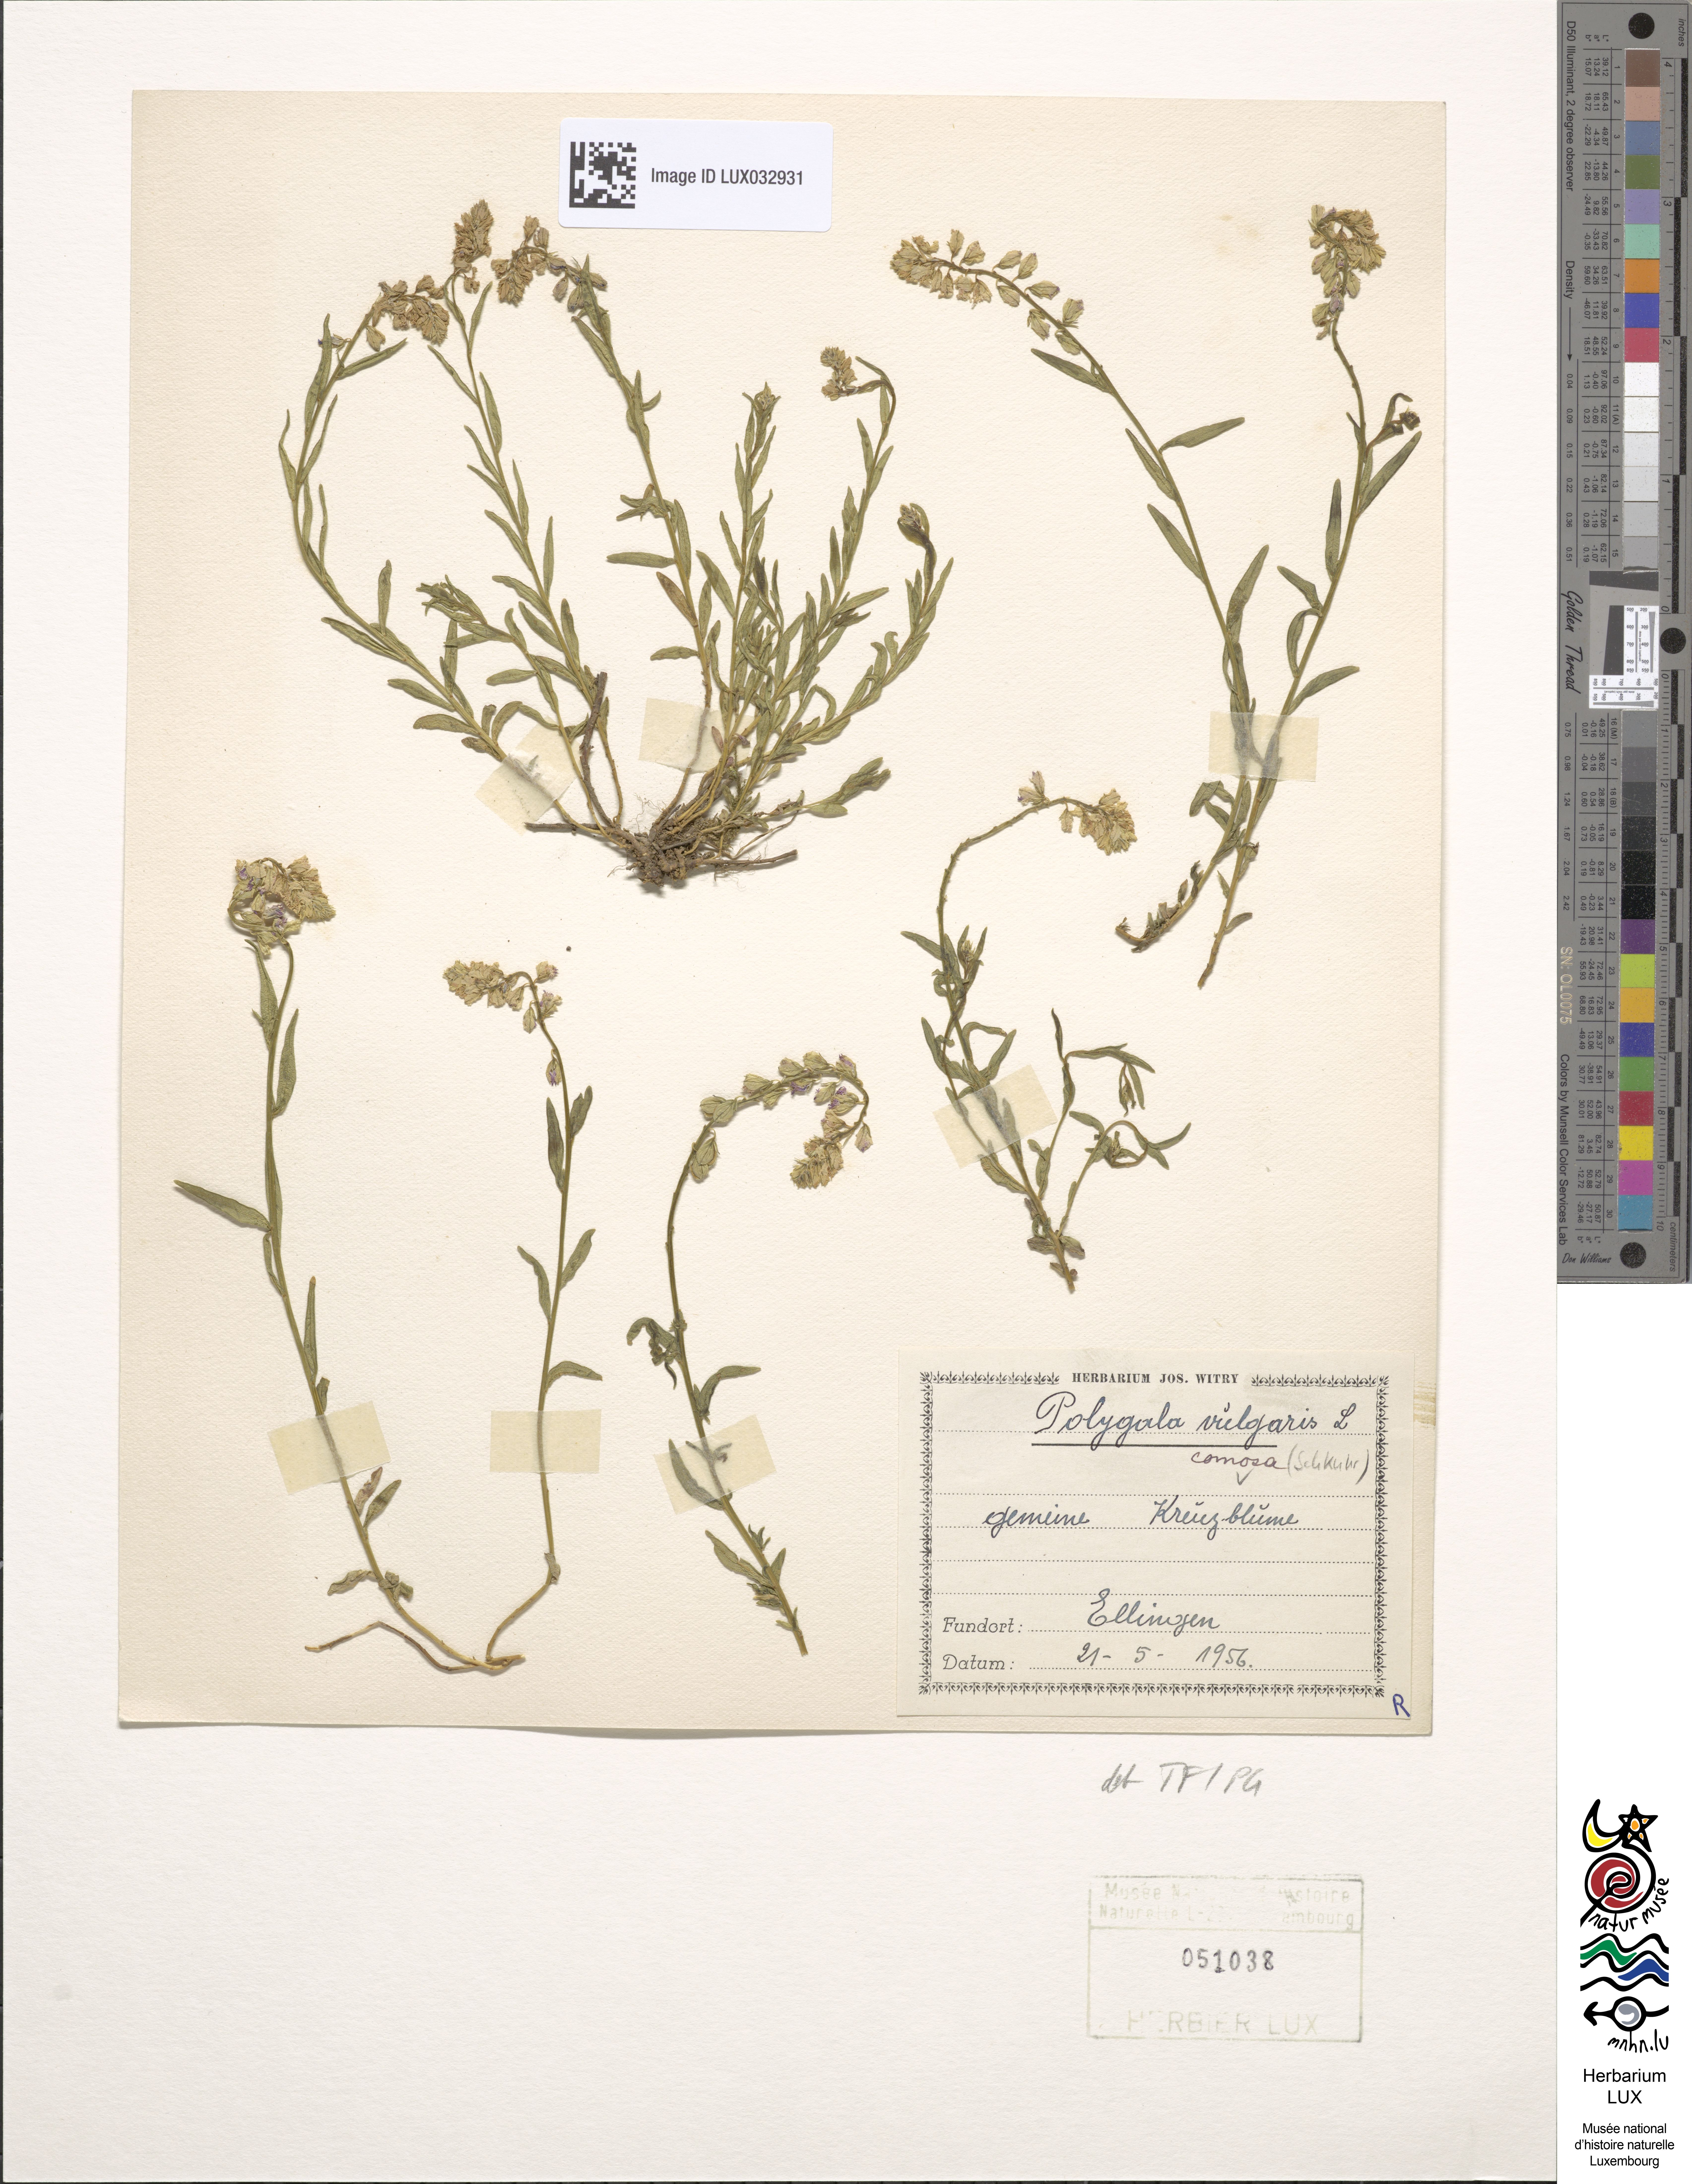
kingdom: Plantae
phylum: Tracheophyta
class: Magnoliopsida
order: Fabales
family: Polygalaceae
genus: Polygala
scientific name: Polygala comosa
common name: Tufted milkwort
